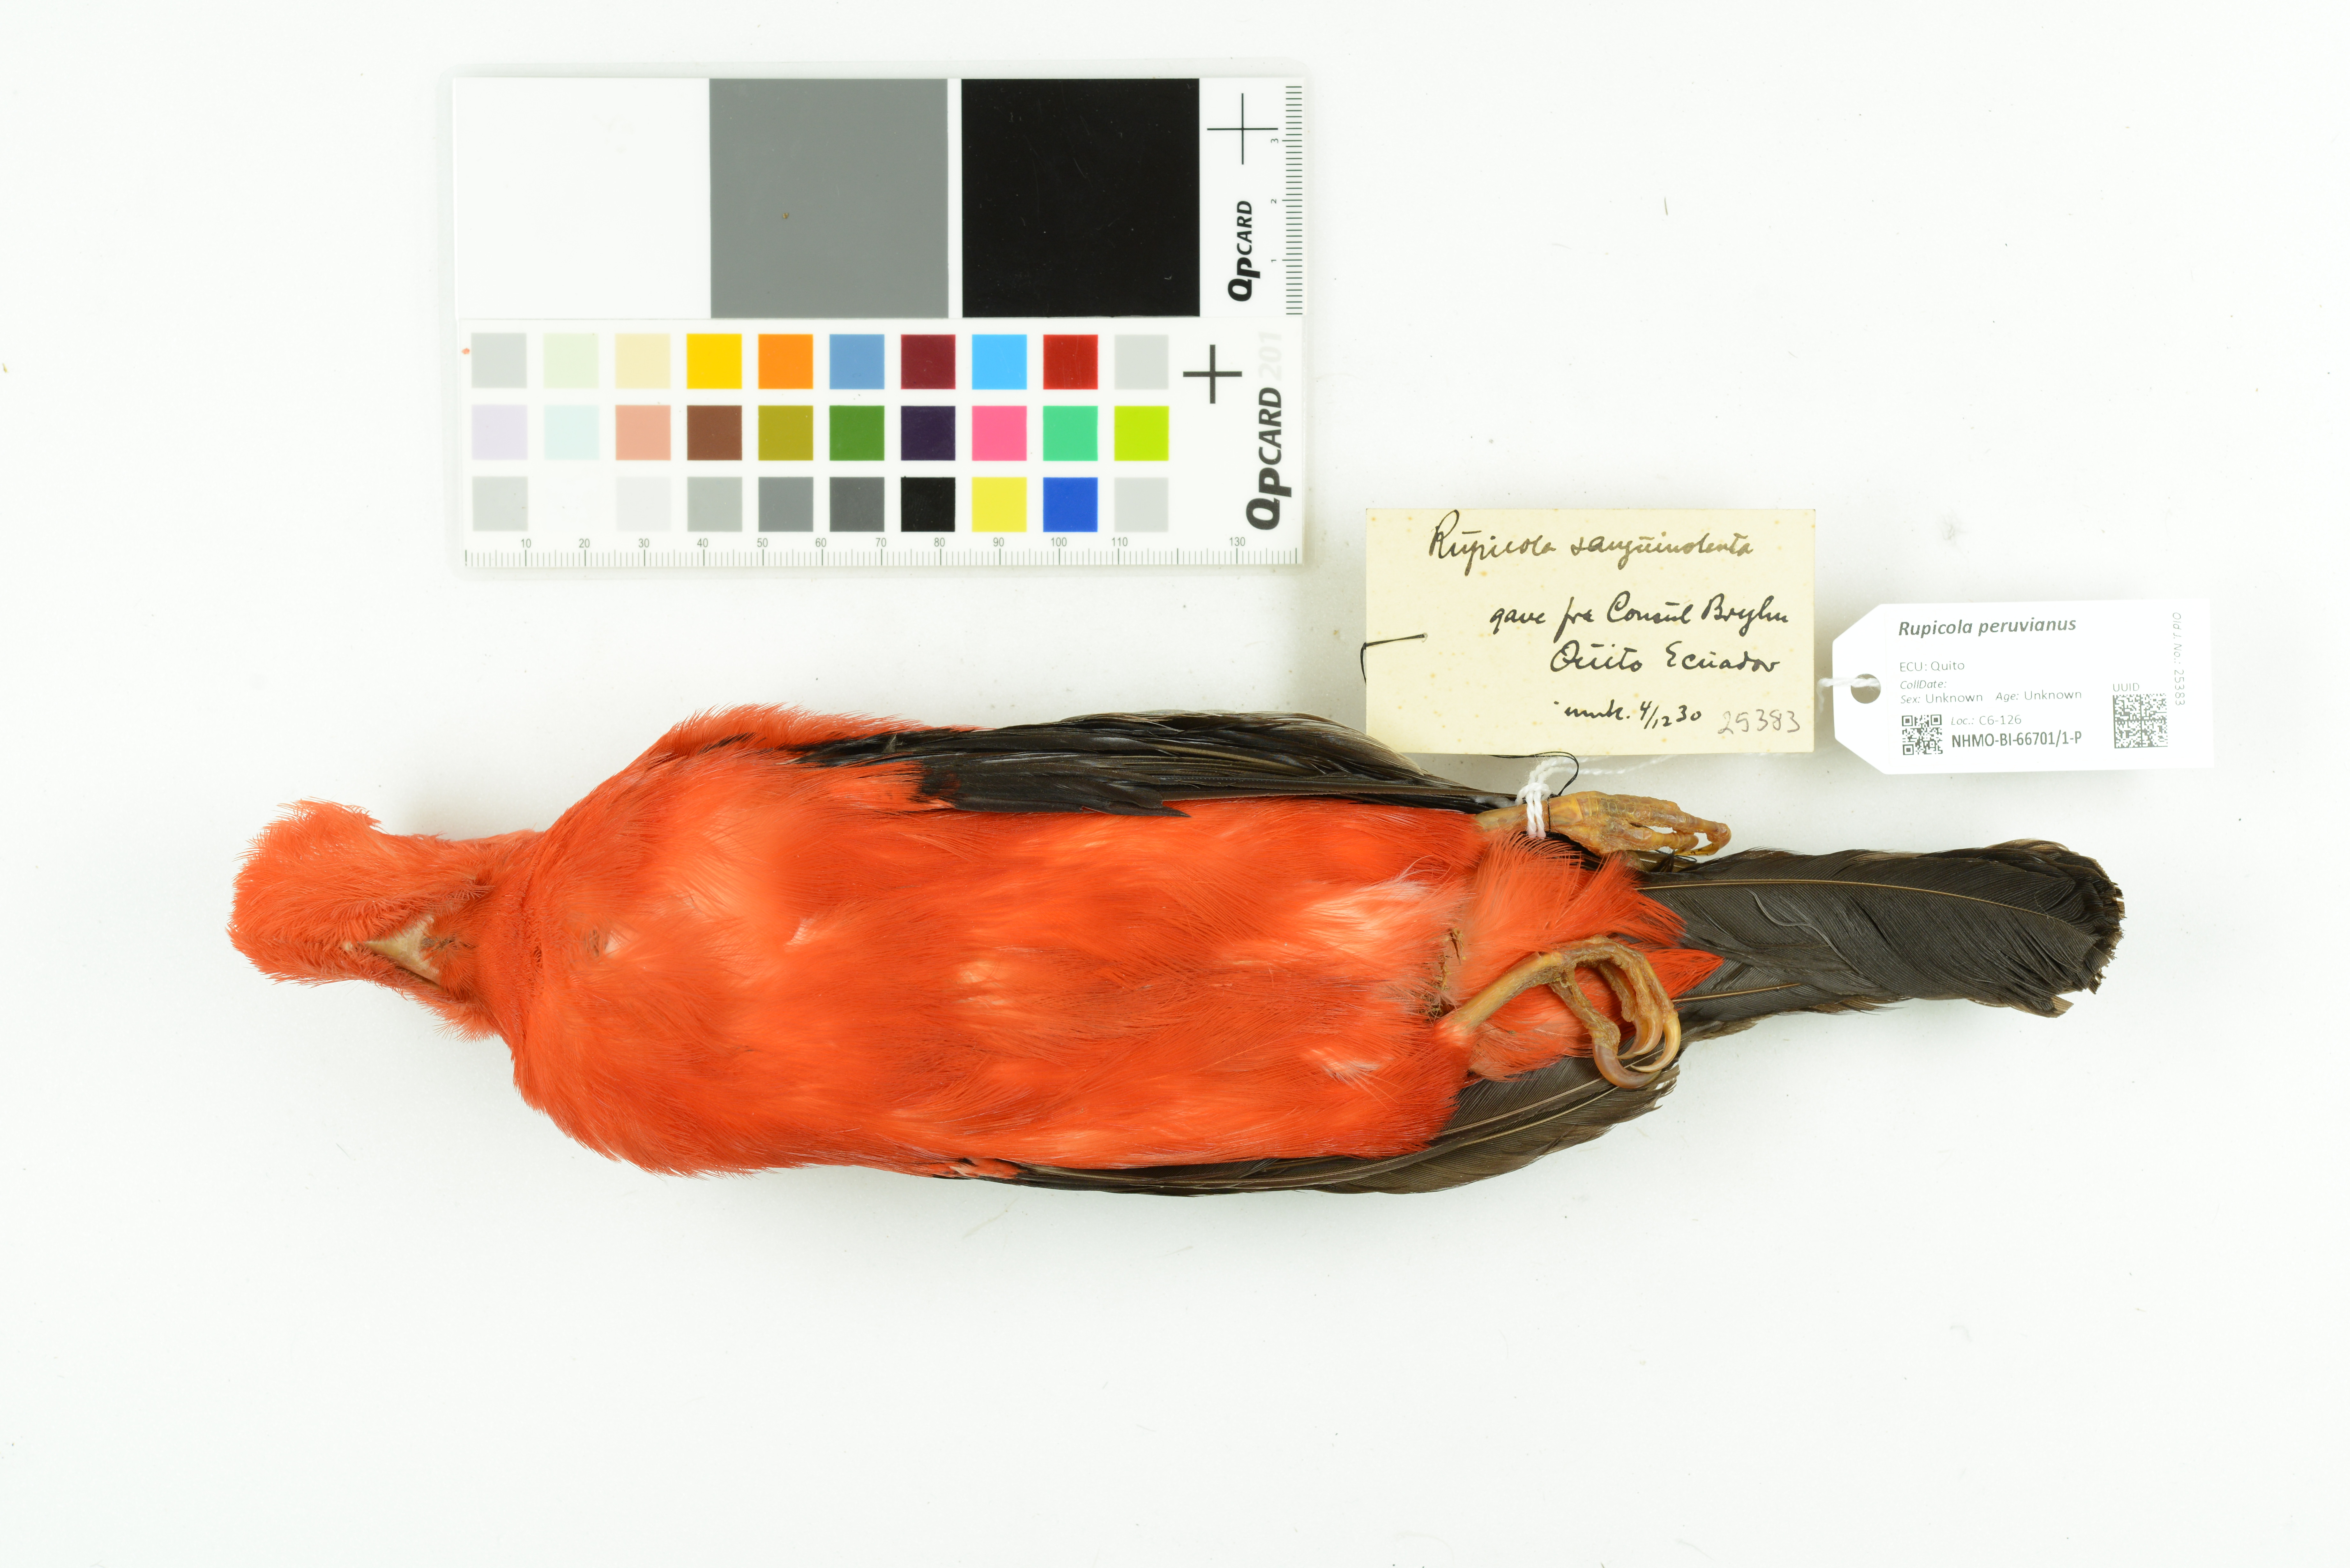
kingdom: Animalia
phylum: Chordata
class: Aves
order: Passeriformes
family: Cotingidae
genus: Rupicola
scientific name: Rupicola peruvianus
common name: Andean cock-of-the-rock
